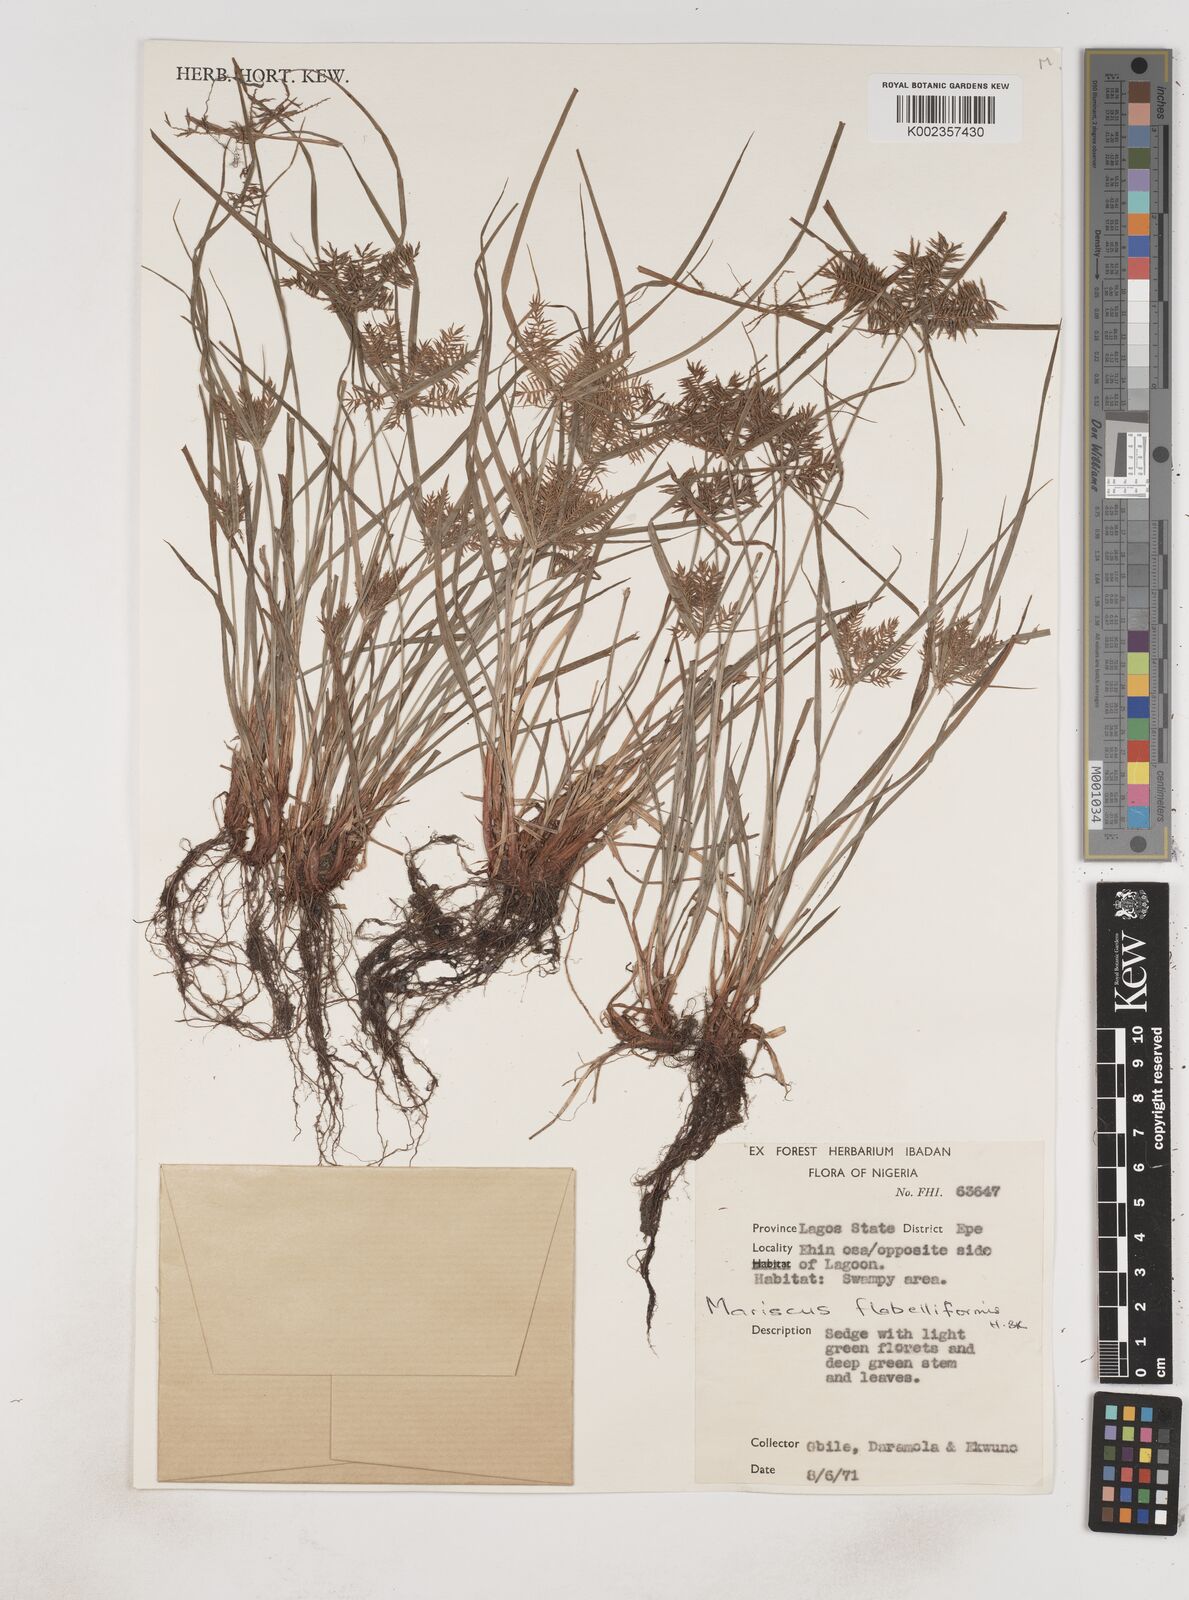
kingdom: Plantae
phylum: Tracheophyta
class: Liliopsida
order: Poales
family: Cyperaceae
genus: Cyperus
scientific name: Cyperus tenuis
